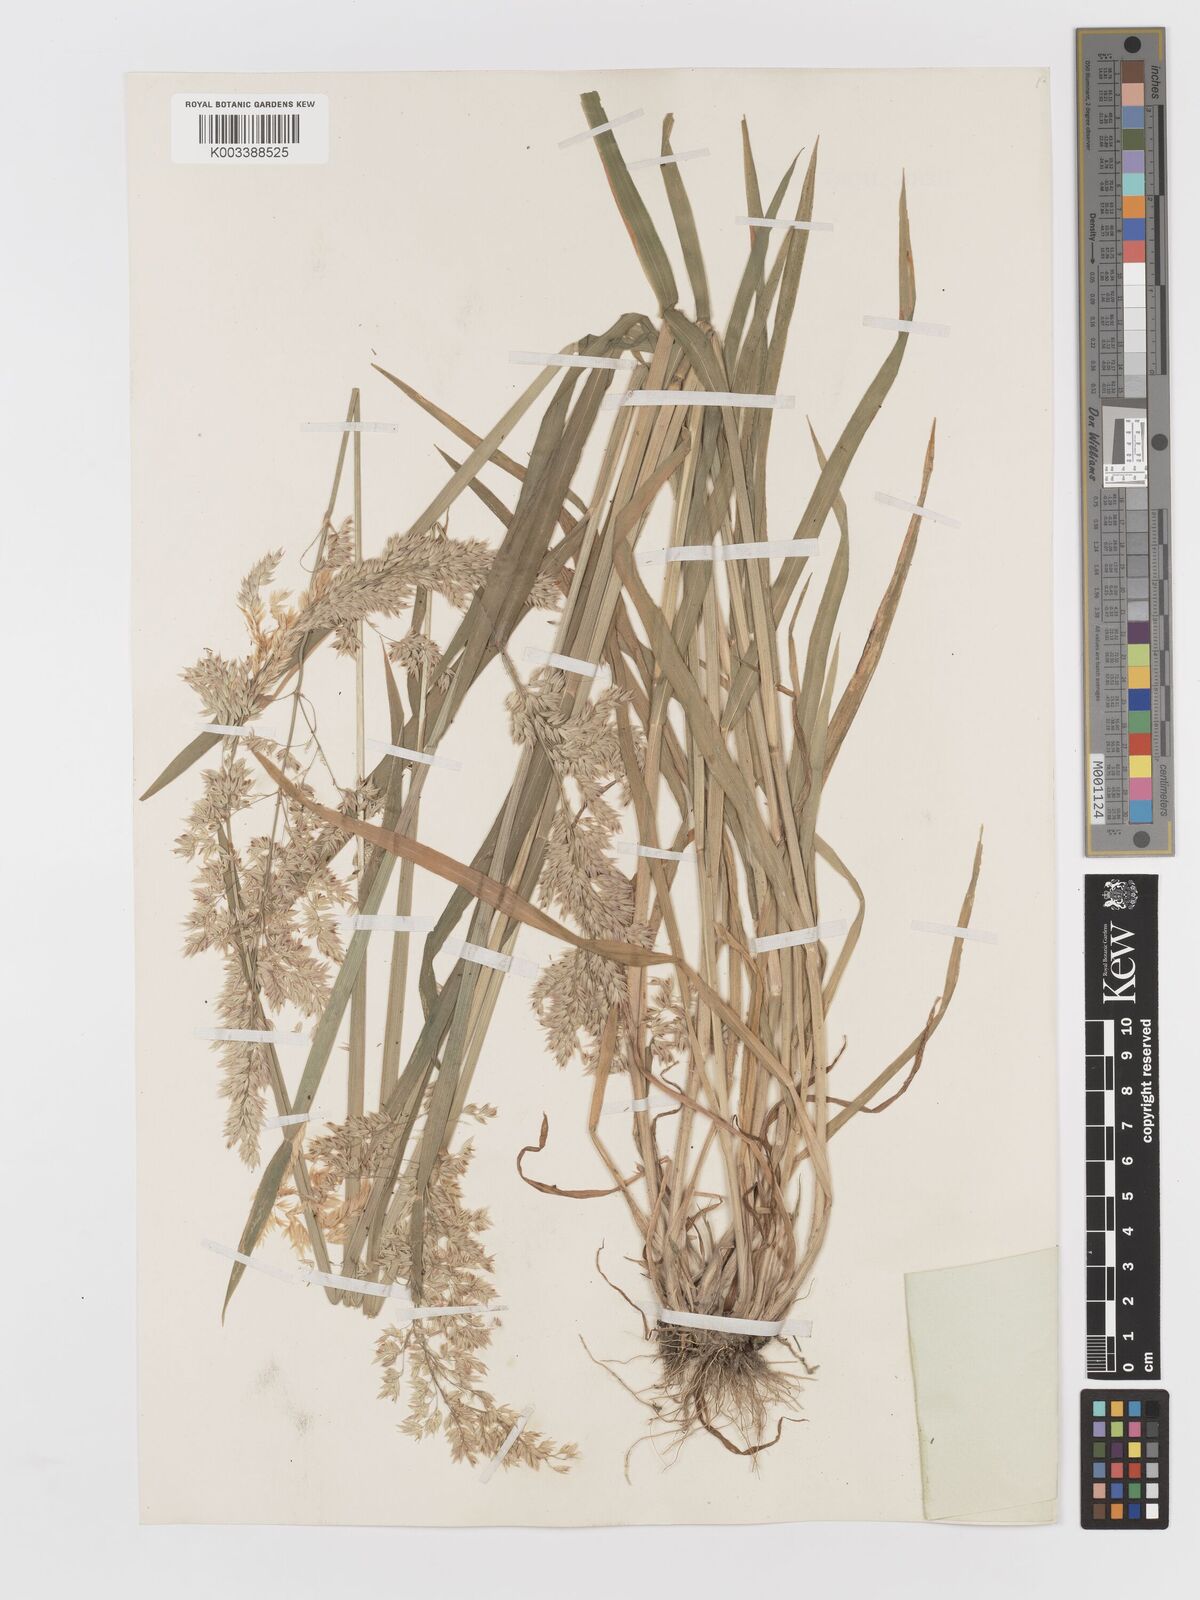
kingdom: Plantae
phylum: Tracheophyta
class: Liliopsida
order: Poales
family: Poaceae
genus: Holcus
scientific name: Holcus lanatus
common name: Yorkshire-fog
